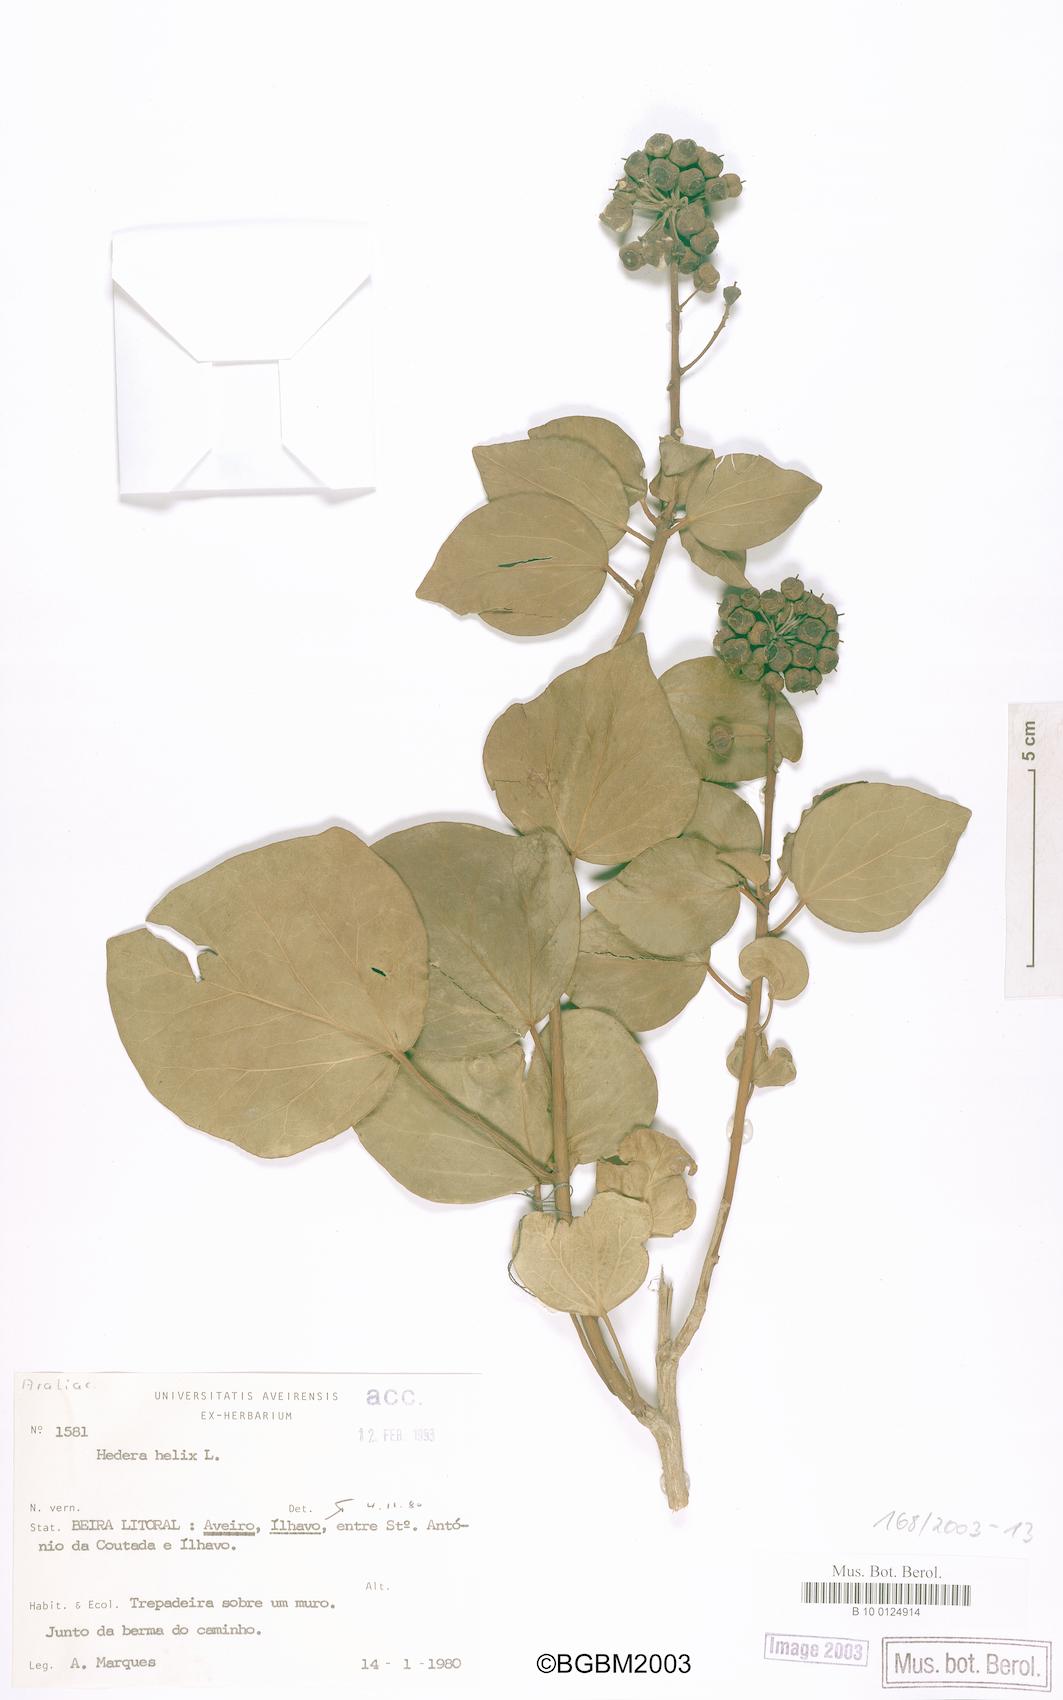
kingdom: Plantae
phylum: Tracheophyta
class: Magnoliopsida
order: Apiales
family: Araliaceae
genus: Hedera
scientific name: Hedera helix
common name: Ivy
